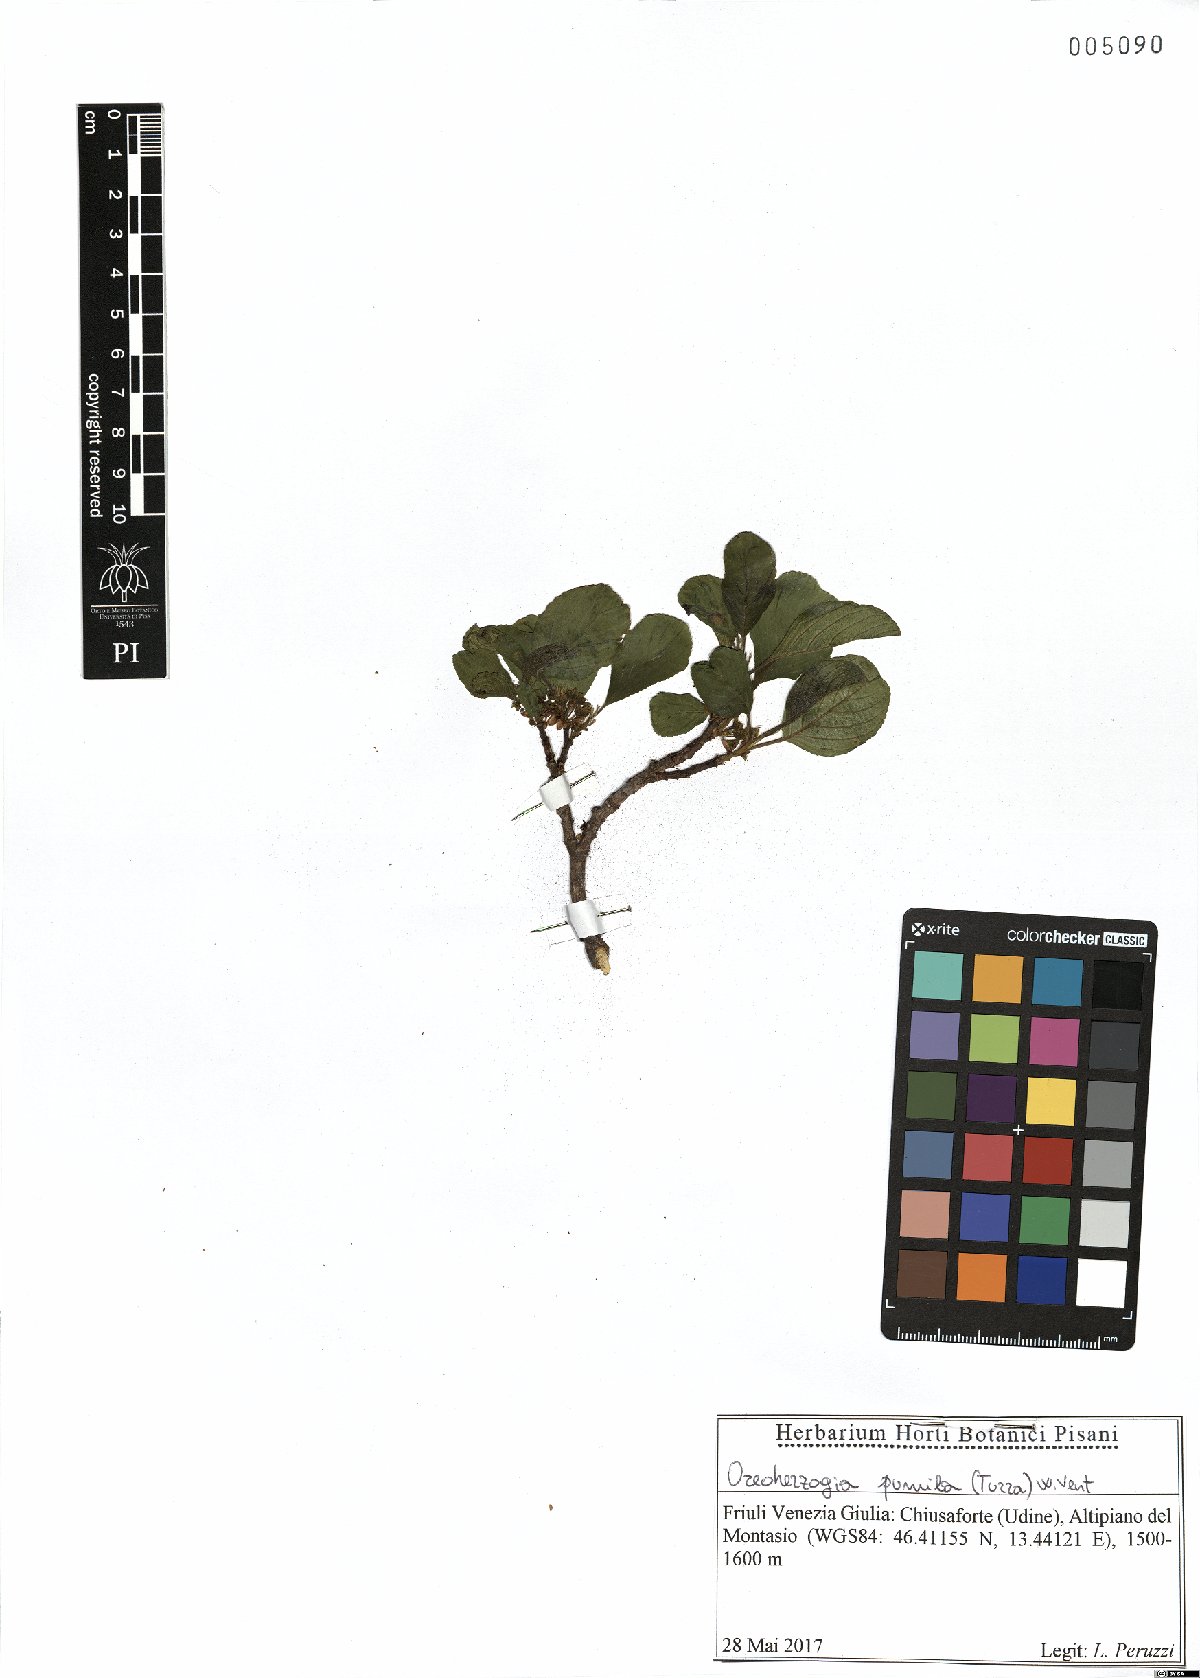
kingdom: Plantae
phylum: Tracheophyta
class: Magnoliopsida
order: Rosales
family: Rhamnaceae
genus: Atadinus
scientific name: Atadinus pumilus
